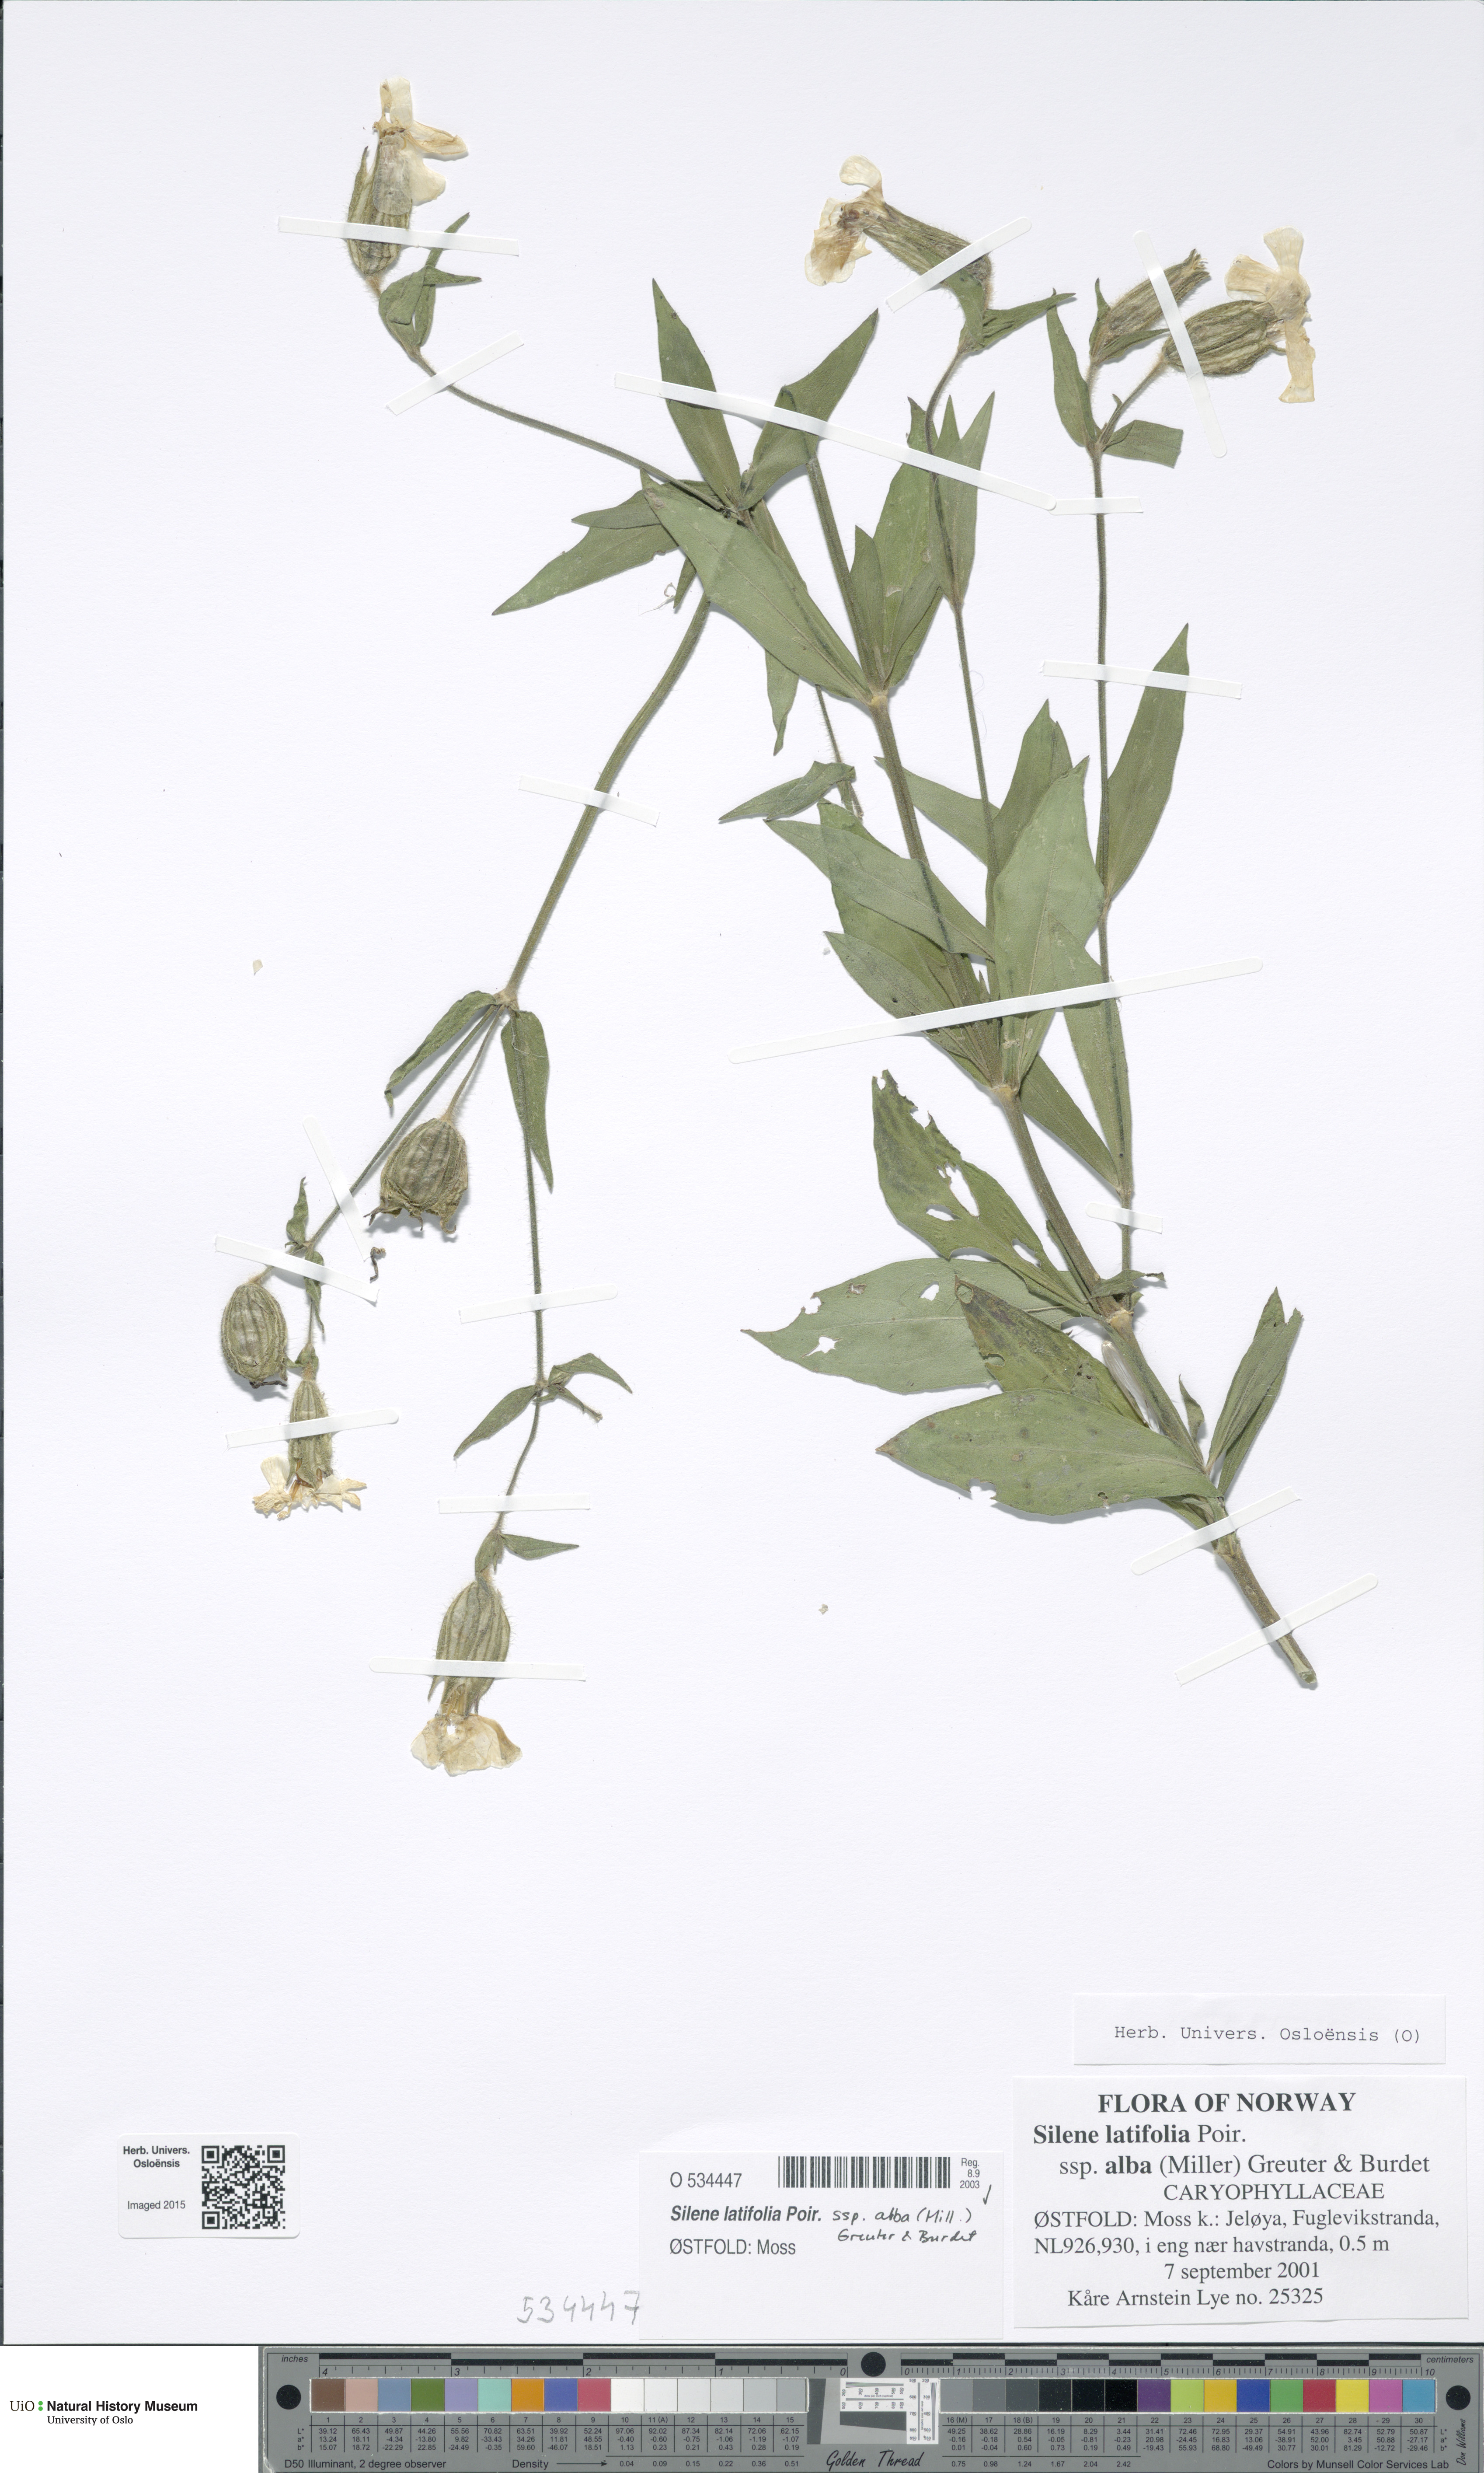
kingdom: Plantae
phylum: Tracheophyta
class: Magnoliopsida
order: Caryophyllales
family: Caryophyllaceae
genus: Silene
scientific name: Silene latifolia
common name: White campion
